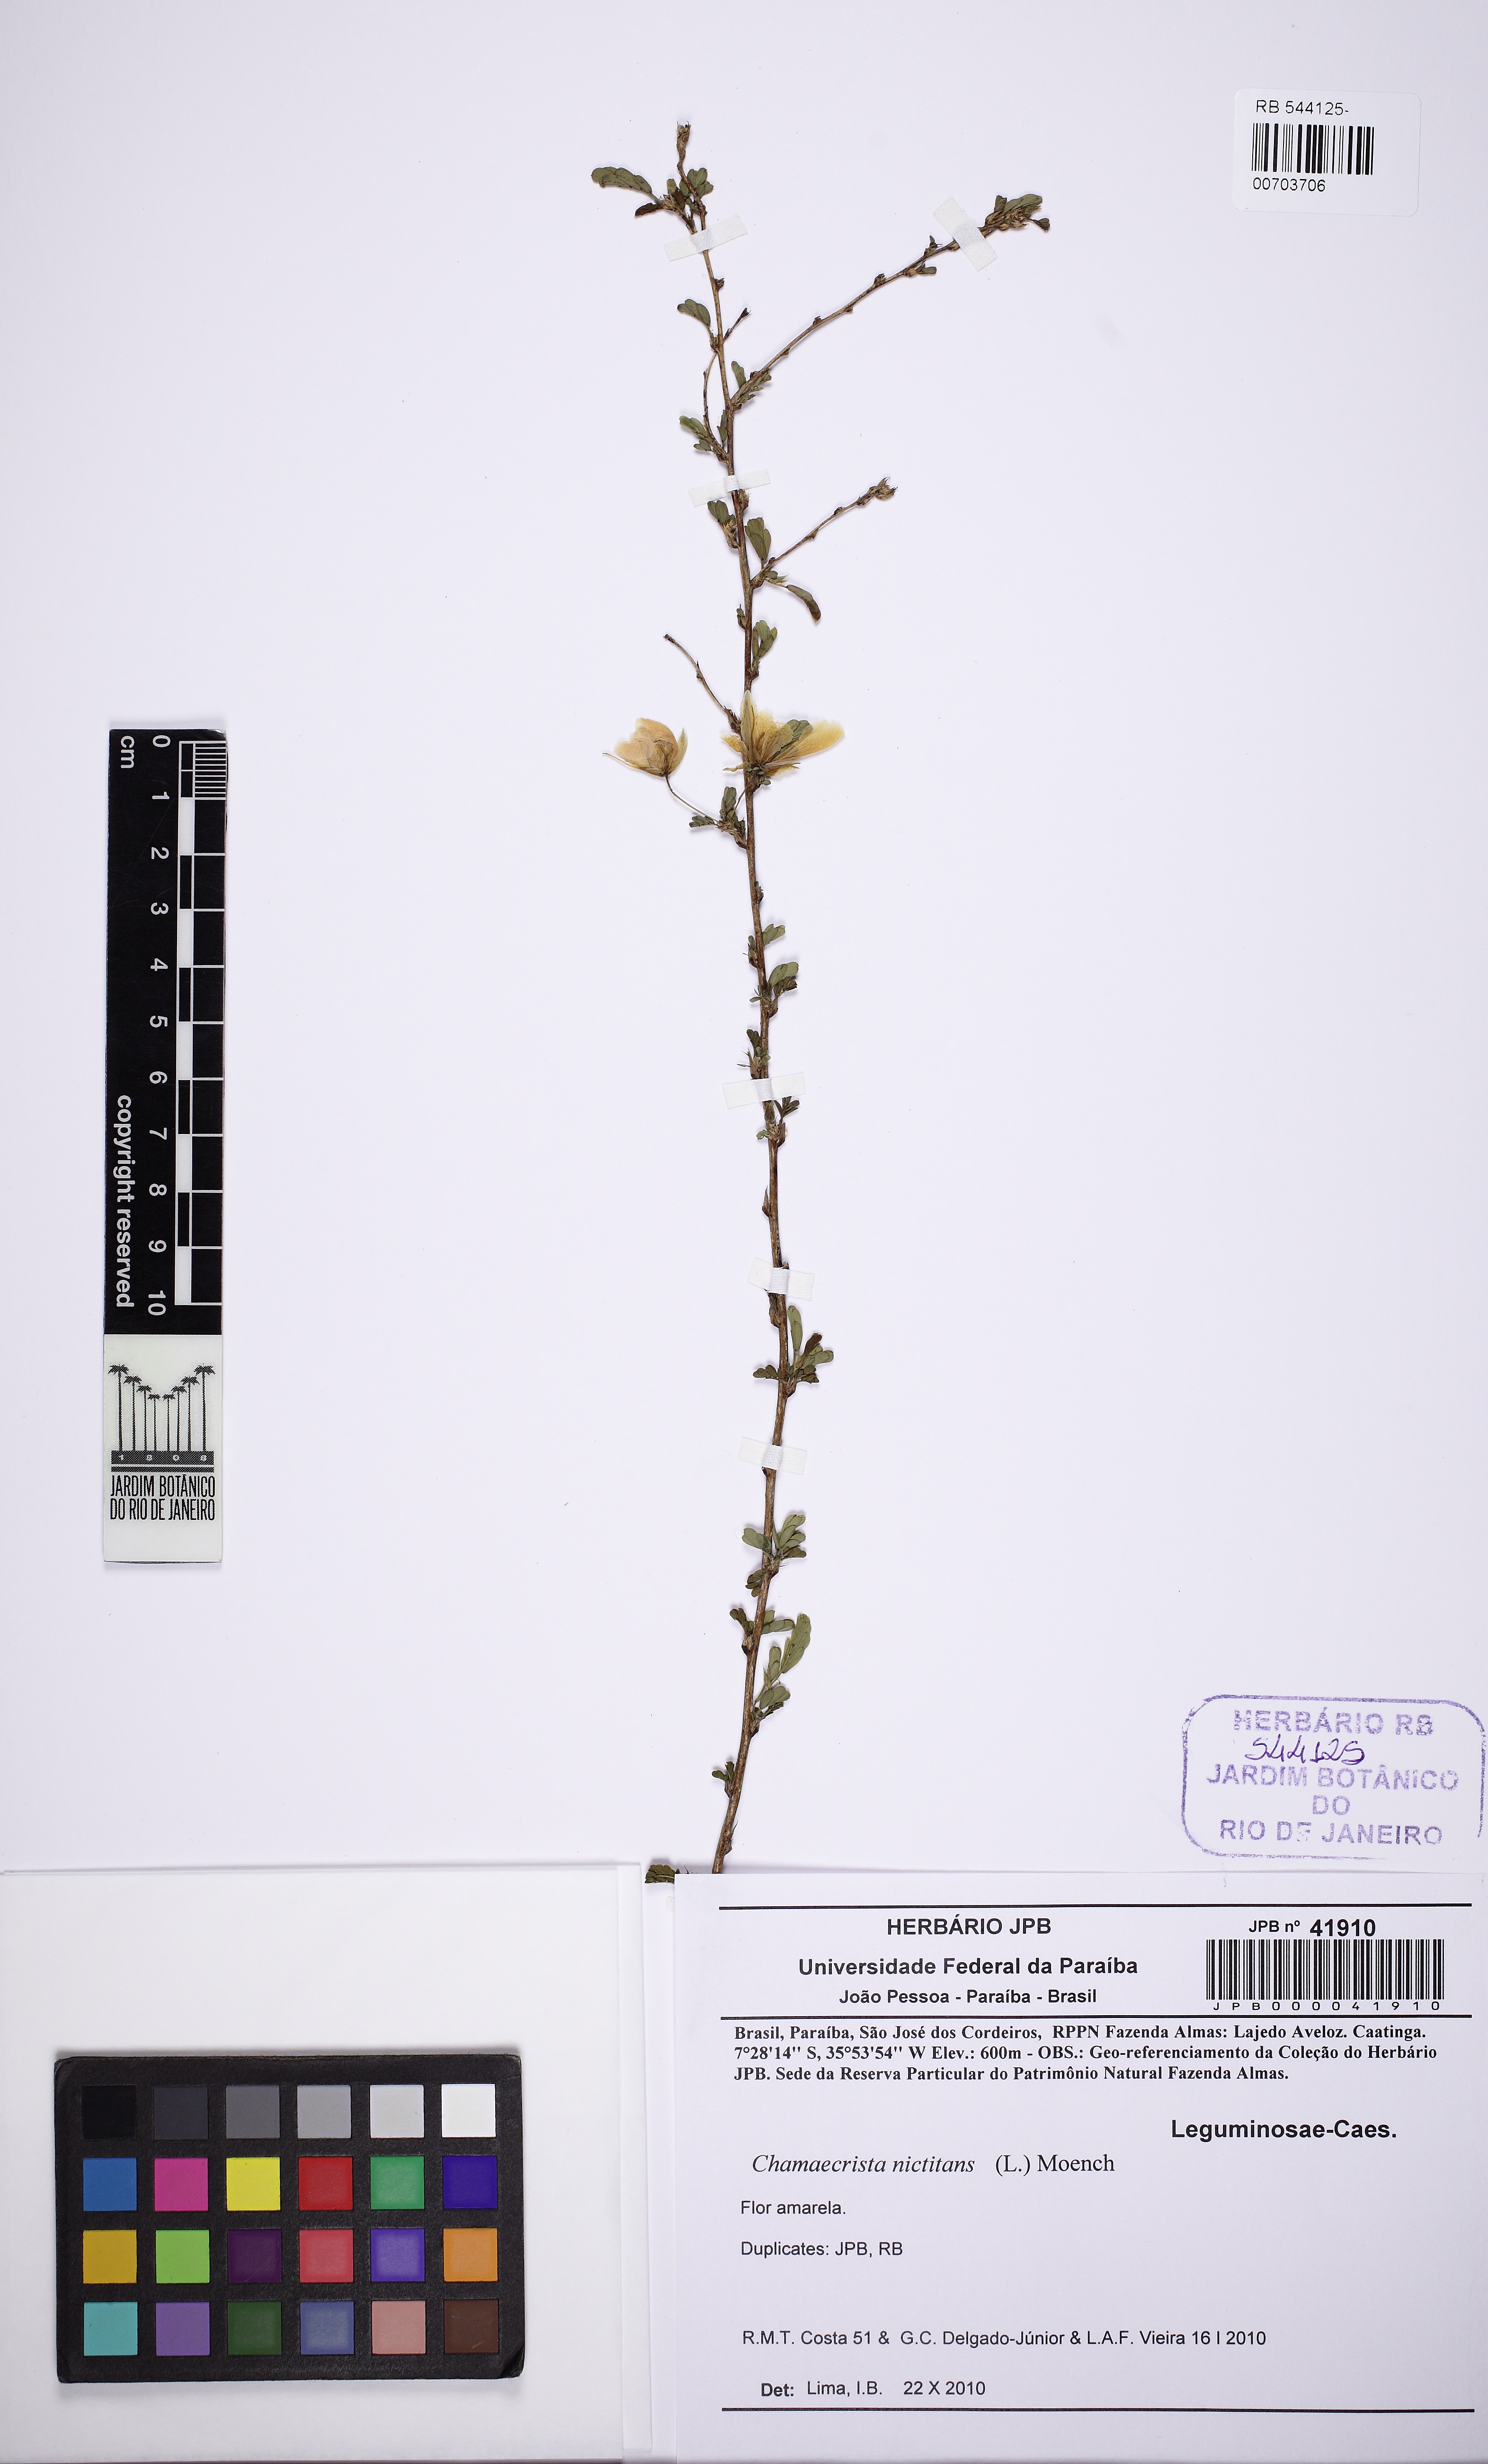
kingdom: Plantae
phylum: Tracheophyta
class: Magnoliopsida
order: Fabales
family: Fabaceae
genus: Chamaecrista
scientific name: Chamaecrista nictitans
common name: Sensitive cassia
